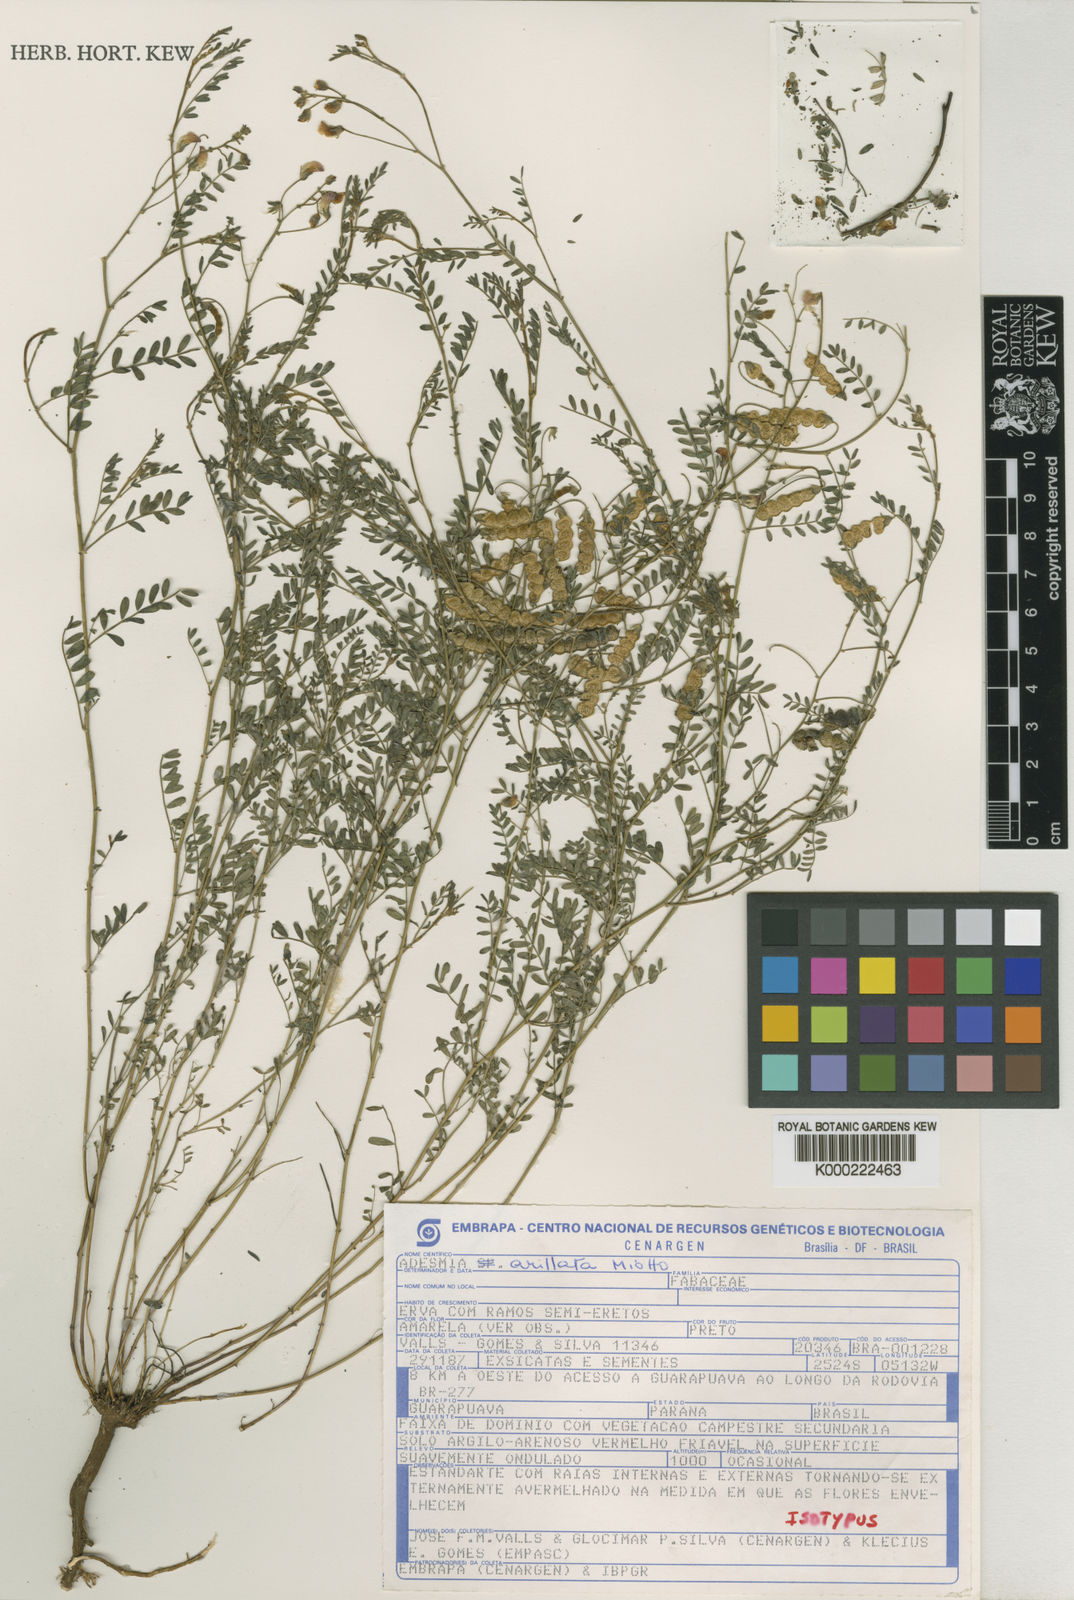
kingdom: Plantae
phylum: Tracheophyta
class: Magnoliopsida
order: Fabales
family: Fabaceae
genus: Adesmia
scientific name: Adesmia arillata
